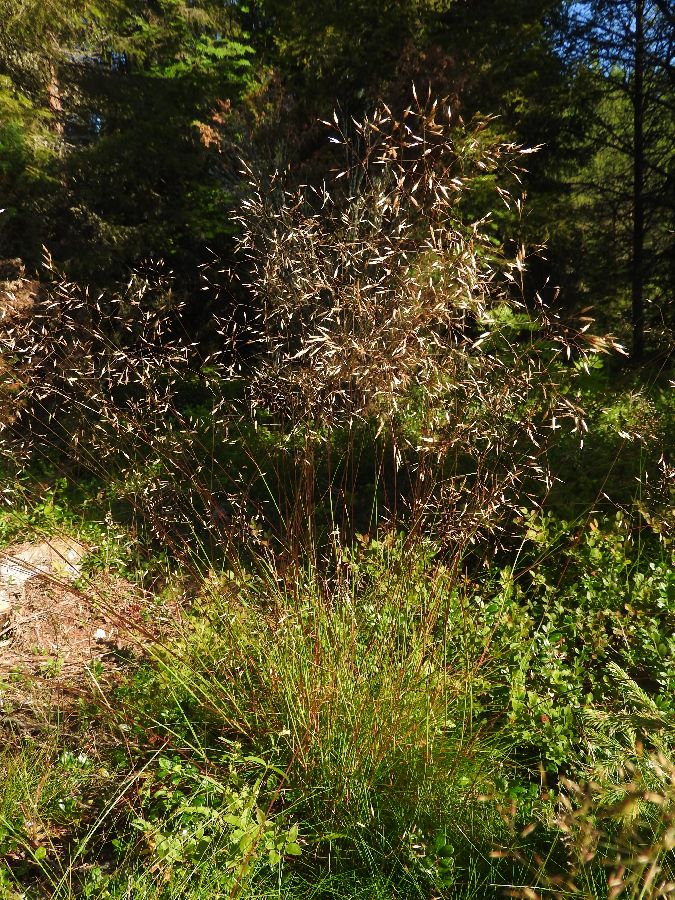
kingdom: Plantae
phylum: Tracheophyta
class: Liliopsida
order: Poales
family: Poaceae
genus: Avenella
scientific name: Avenella flexuosa
